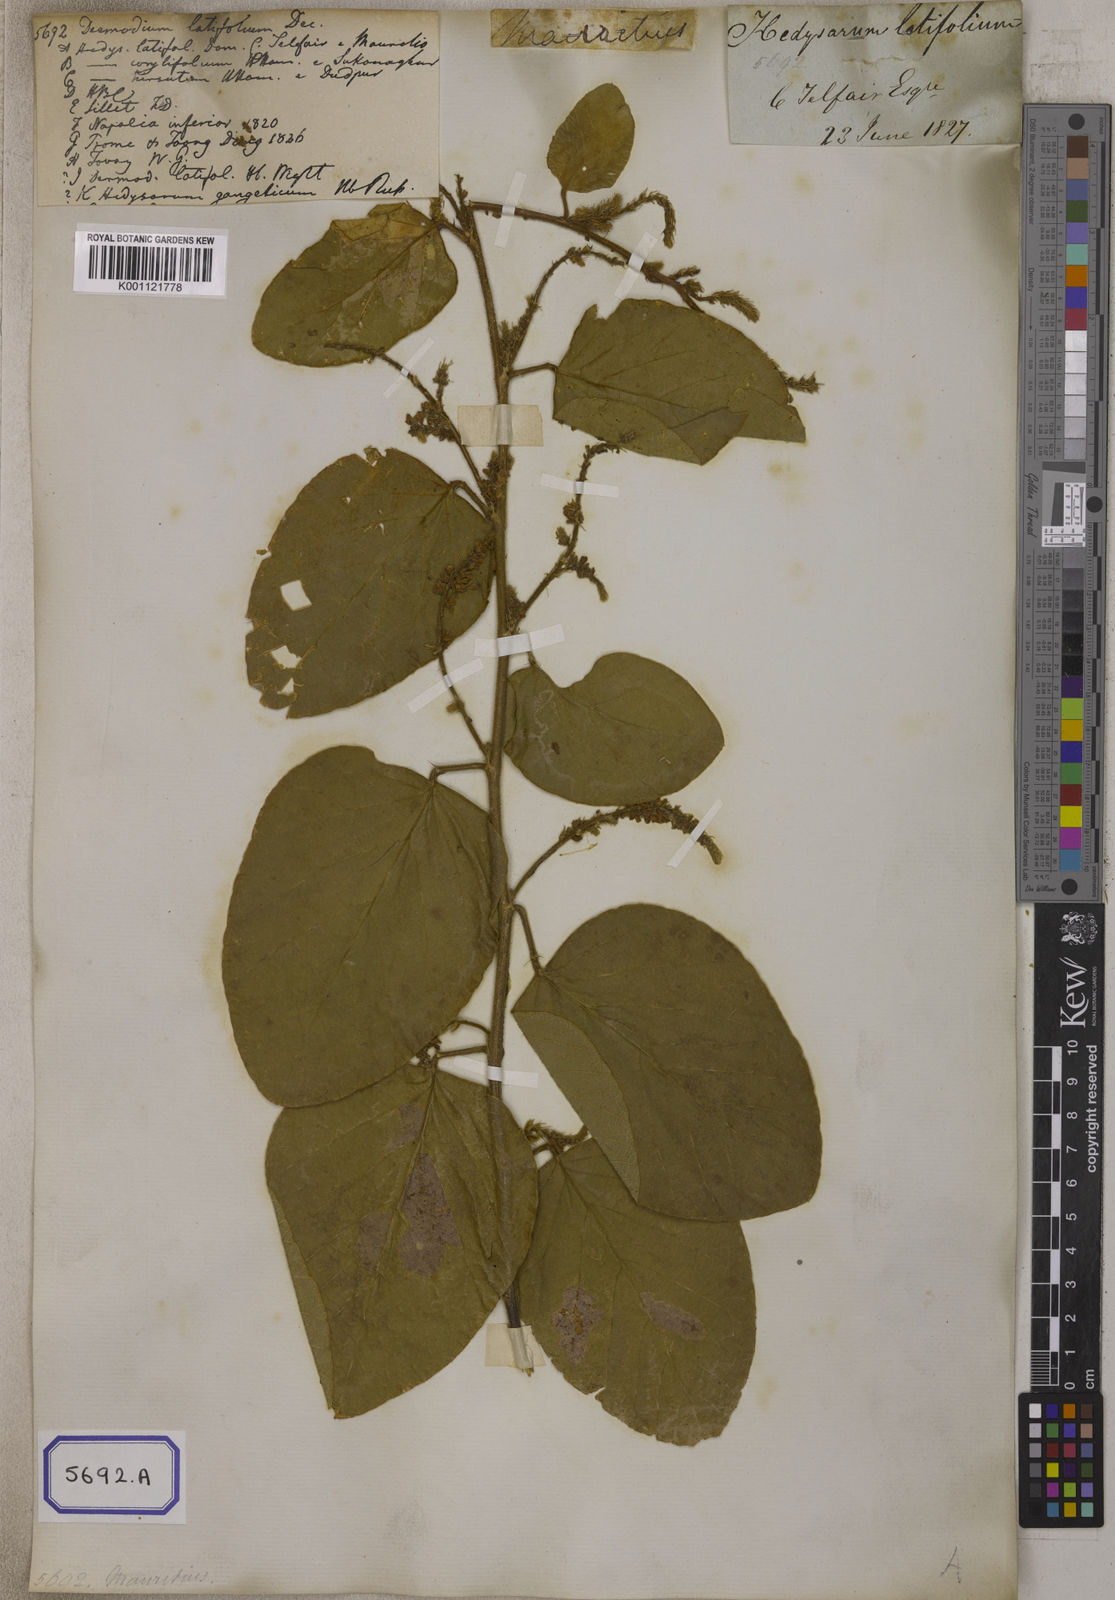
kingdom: Plantae
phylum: Tracheophyta
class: Magnoliopsida
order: Fabales
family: Fabaceae
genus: Polhillides
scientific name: Polhillides velutina
